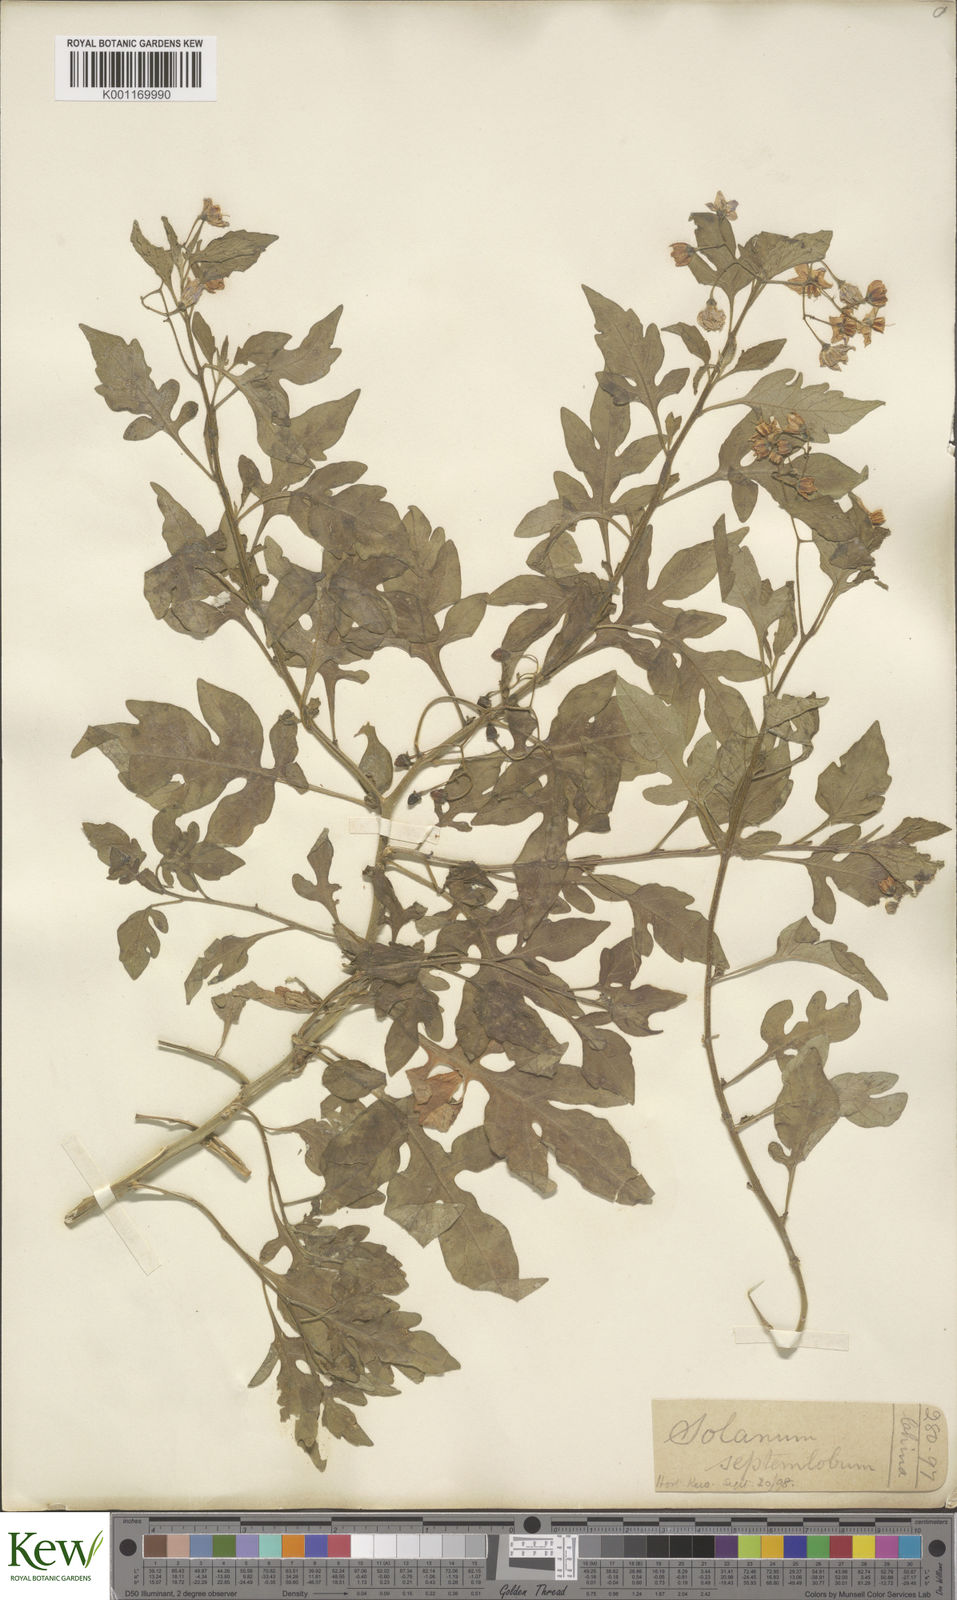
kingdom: Plantae
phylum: Tracheophyta
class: Magnoliopsida
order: Solanales
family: Solanaceae
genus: Solanum
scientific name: Solanum septemlobum
